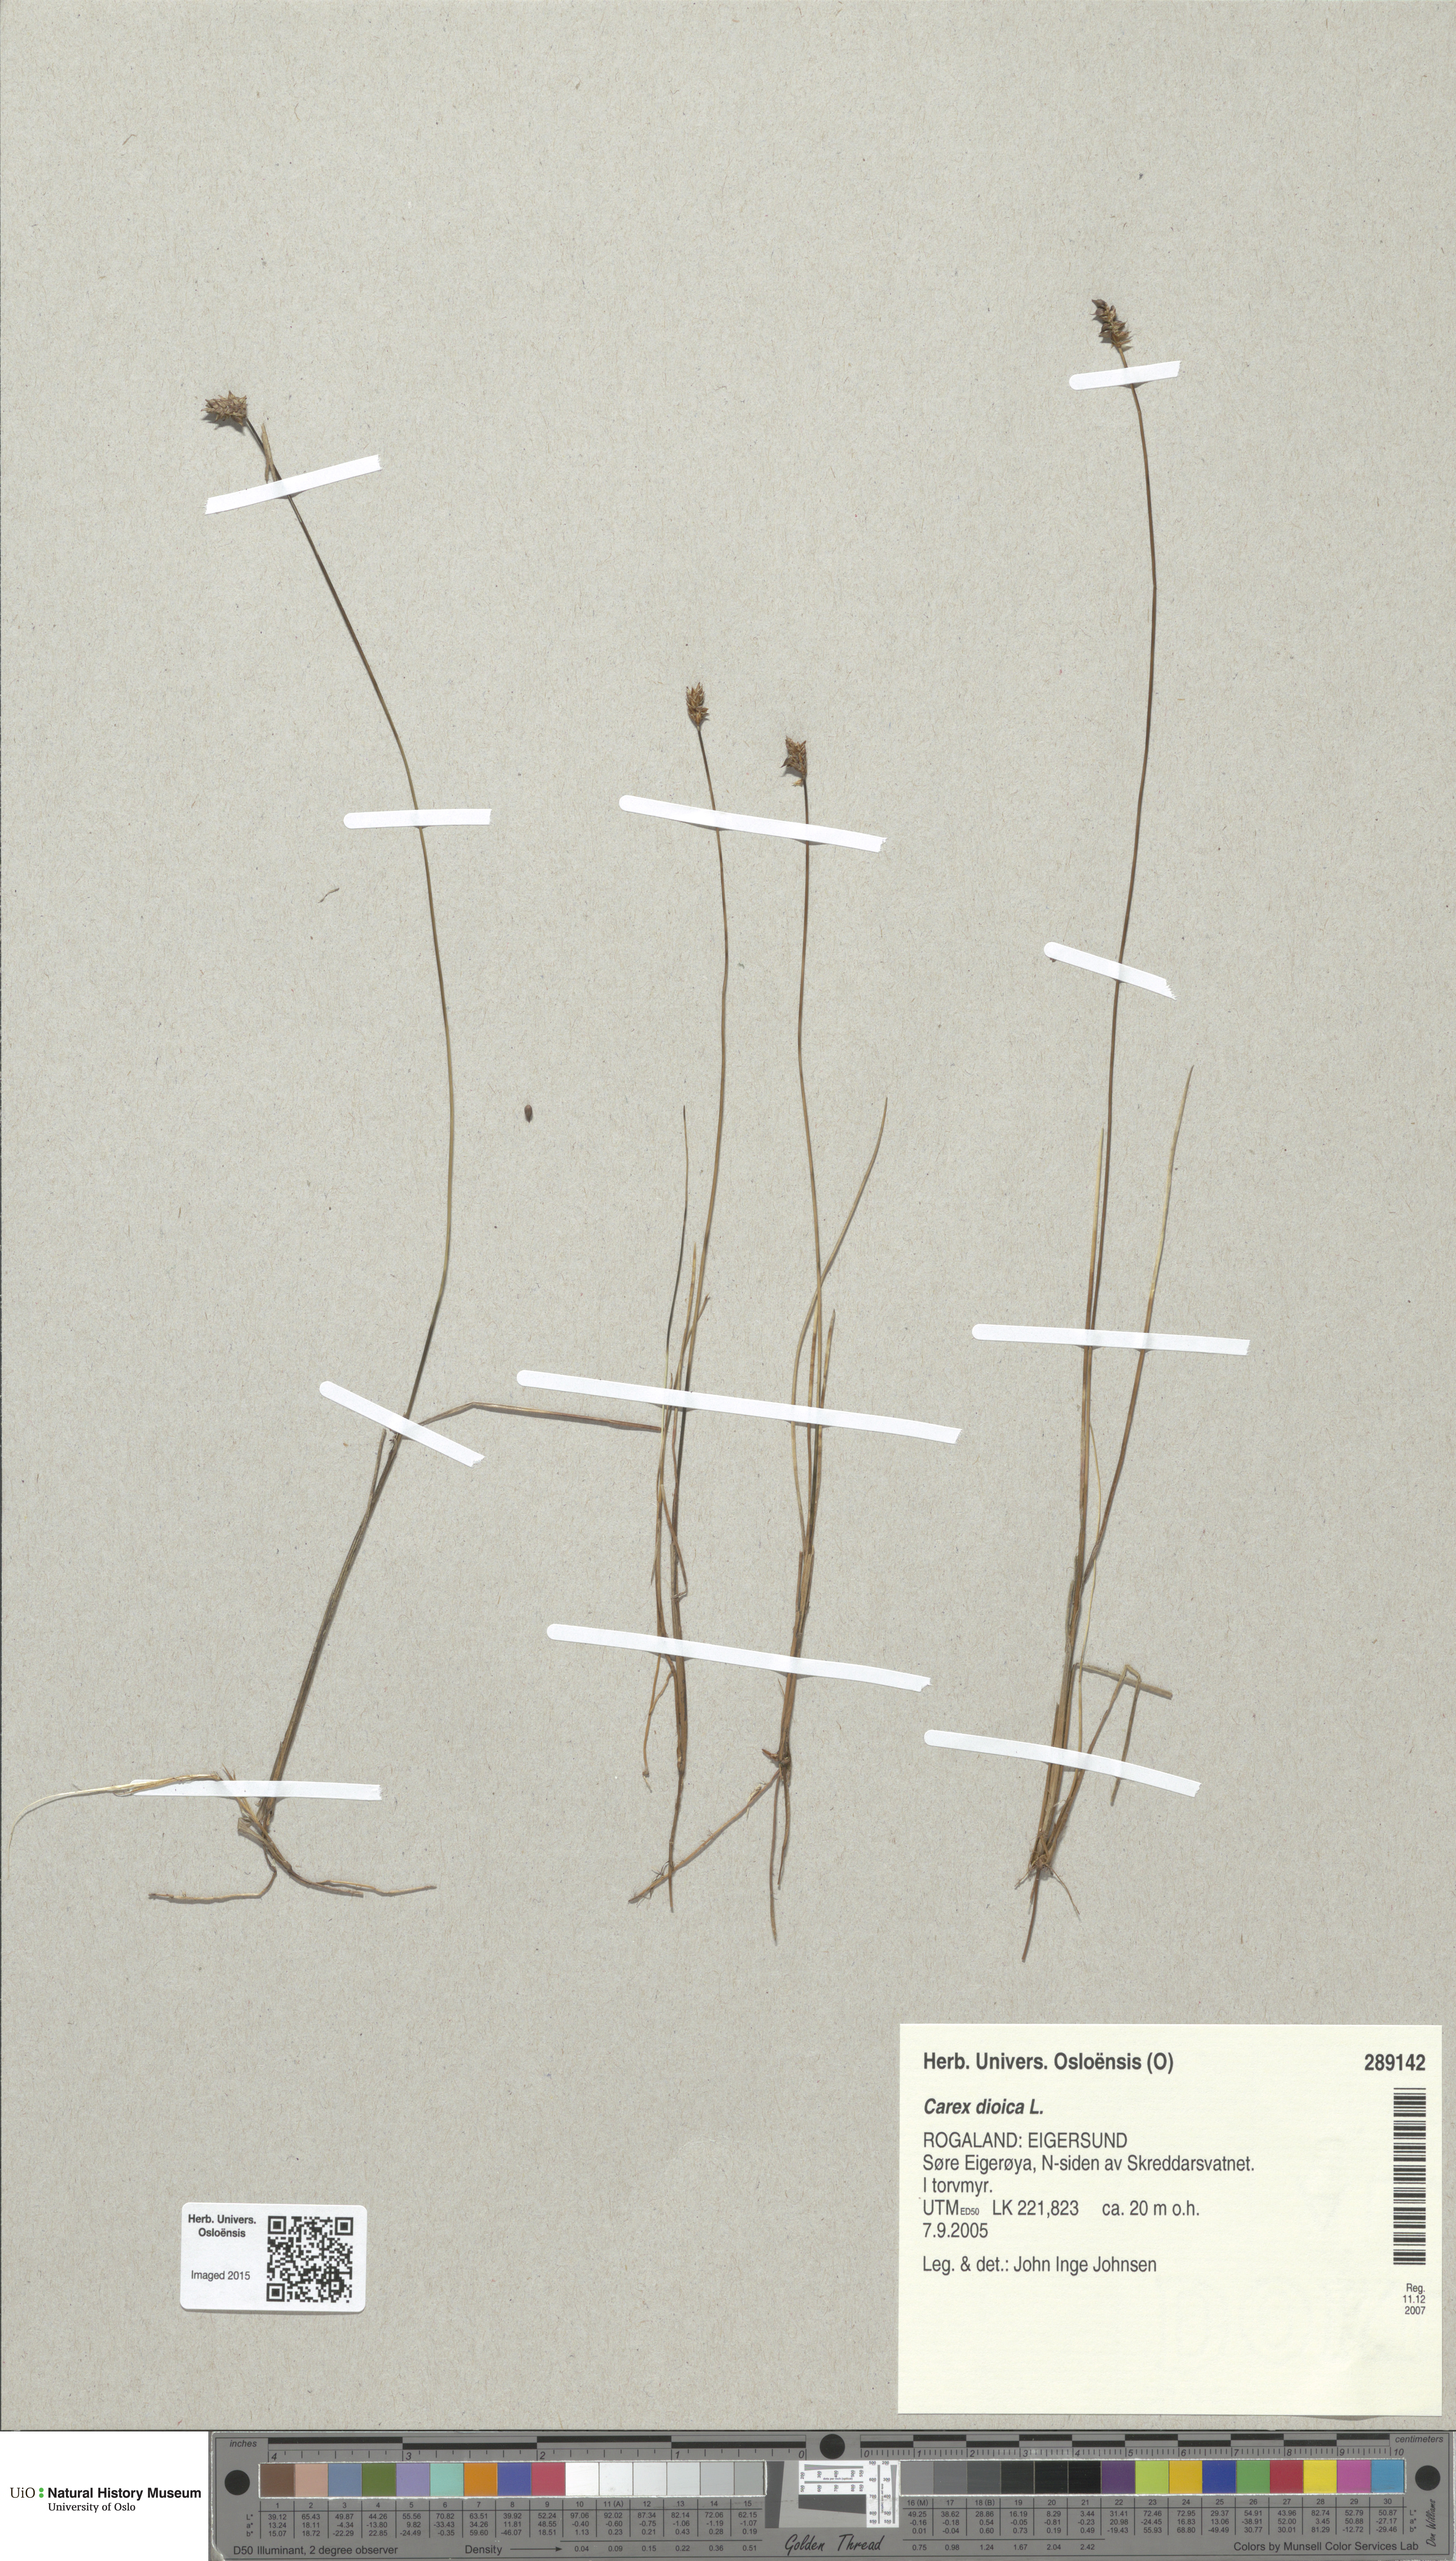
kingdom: Plantae
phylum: Tracheophyta
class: Liliopsida
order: Poales
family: Cyperaceae
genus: Carex
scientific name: Carex dioica
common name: Dioecious sedge
